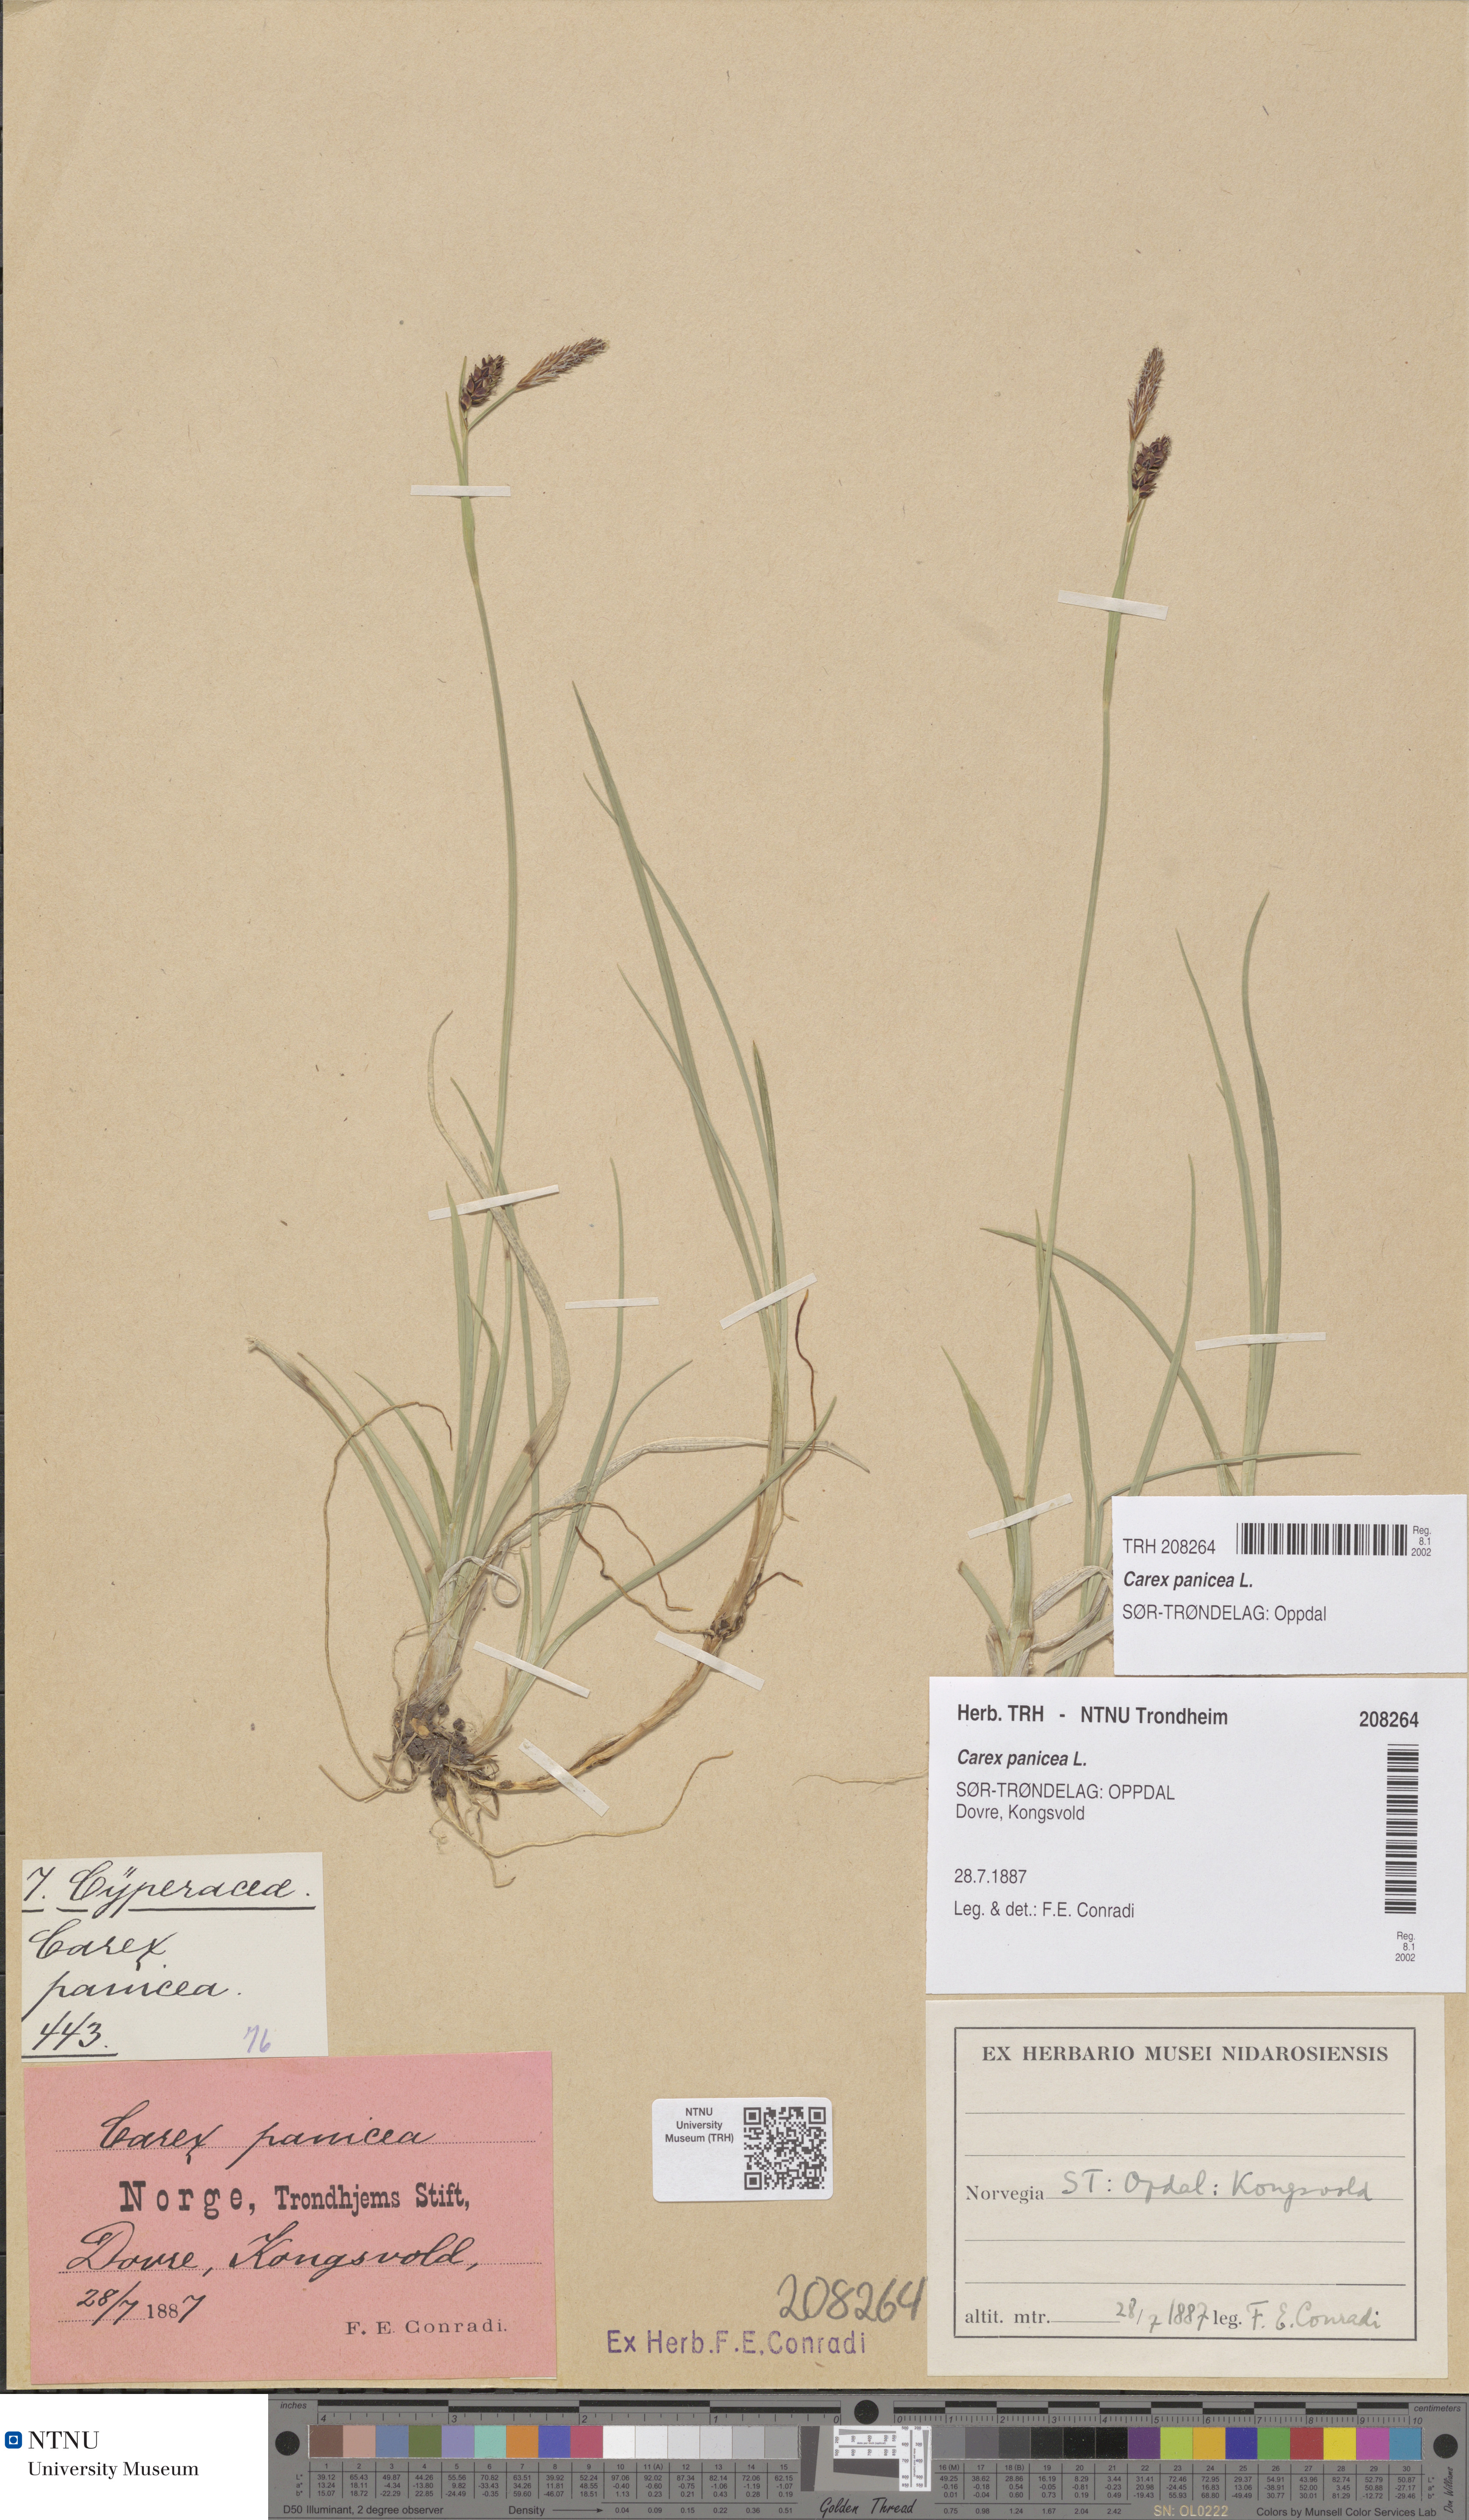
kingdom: Plantae
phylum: Tracheophyta
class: Liliopsida
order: Poales
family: Cyperaceae
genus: Carex
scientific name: Carex panicea
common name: Carnation sedge
